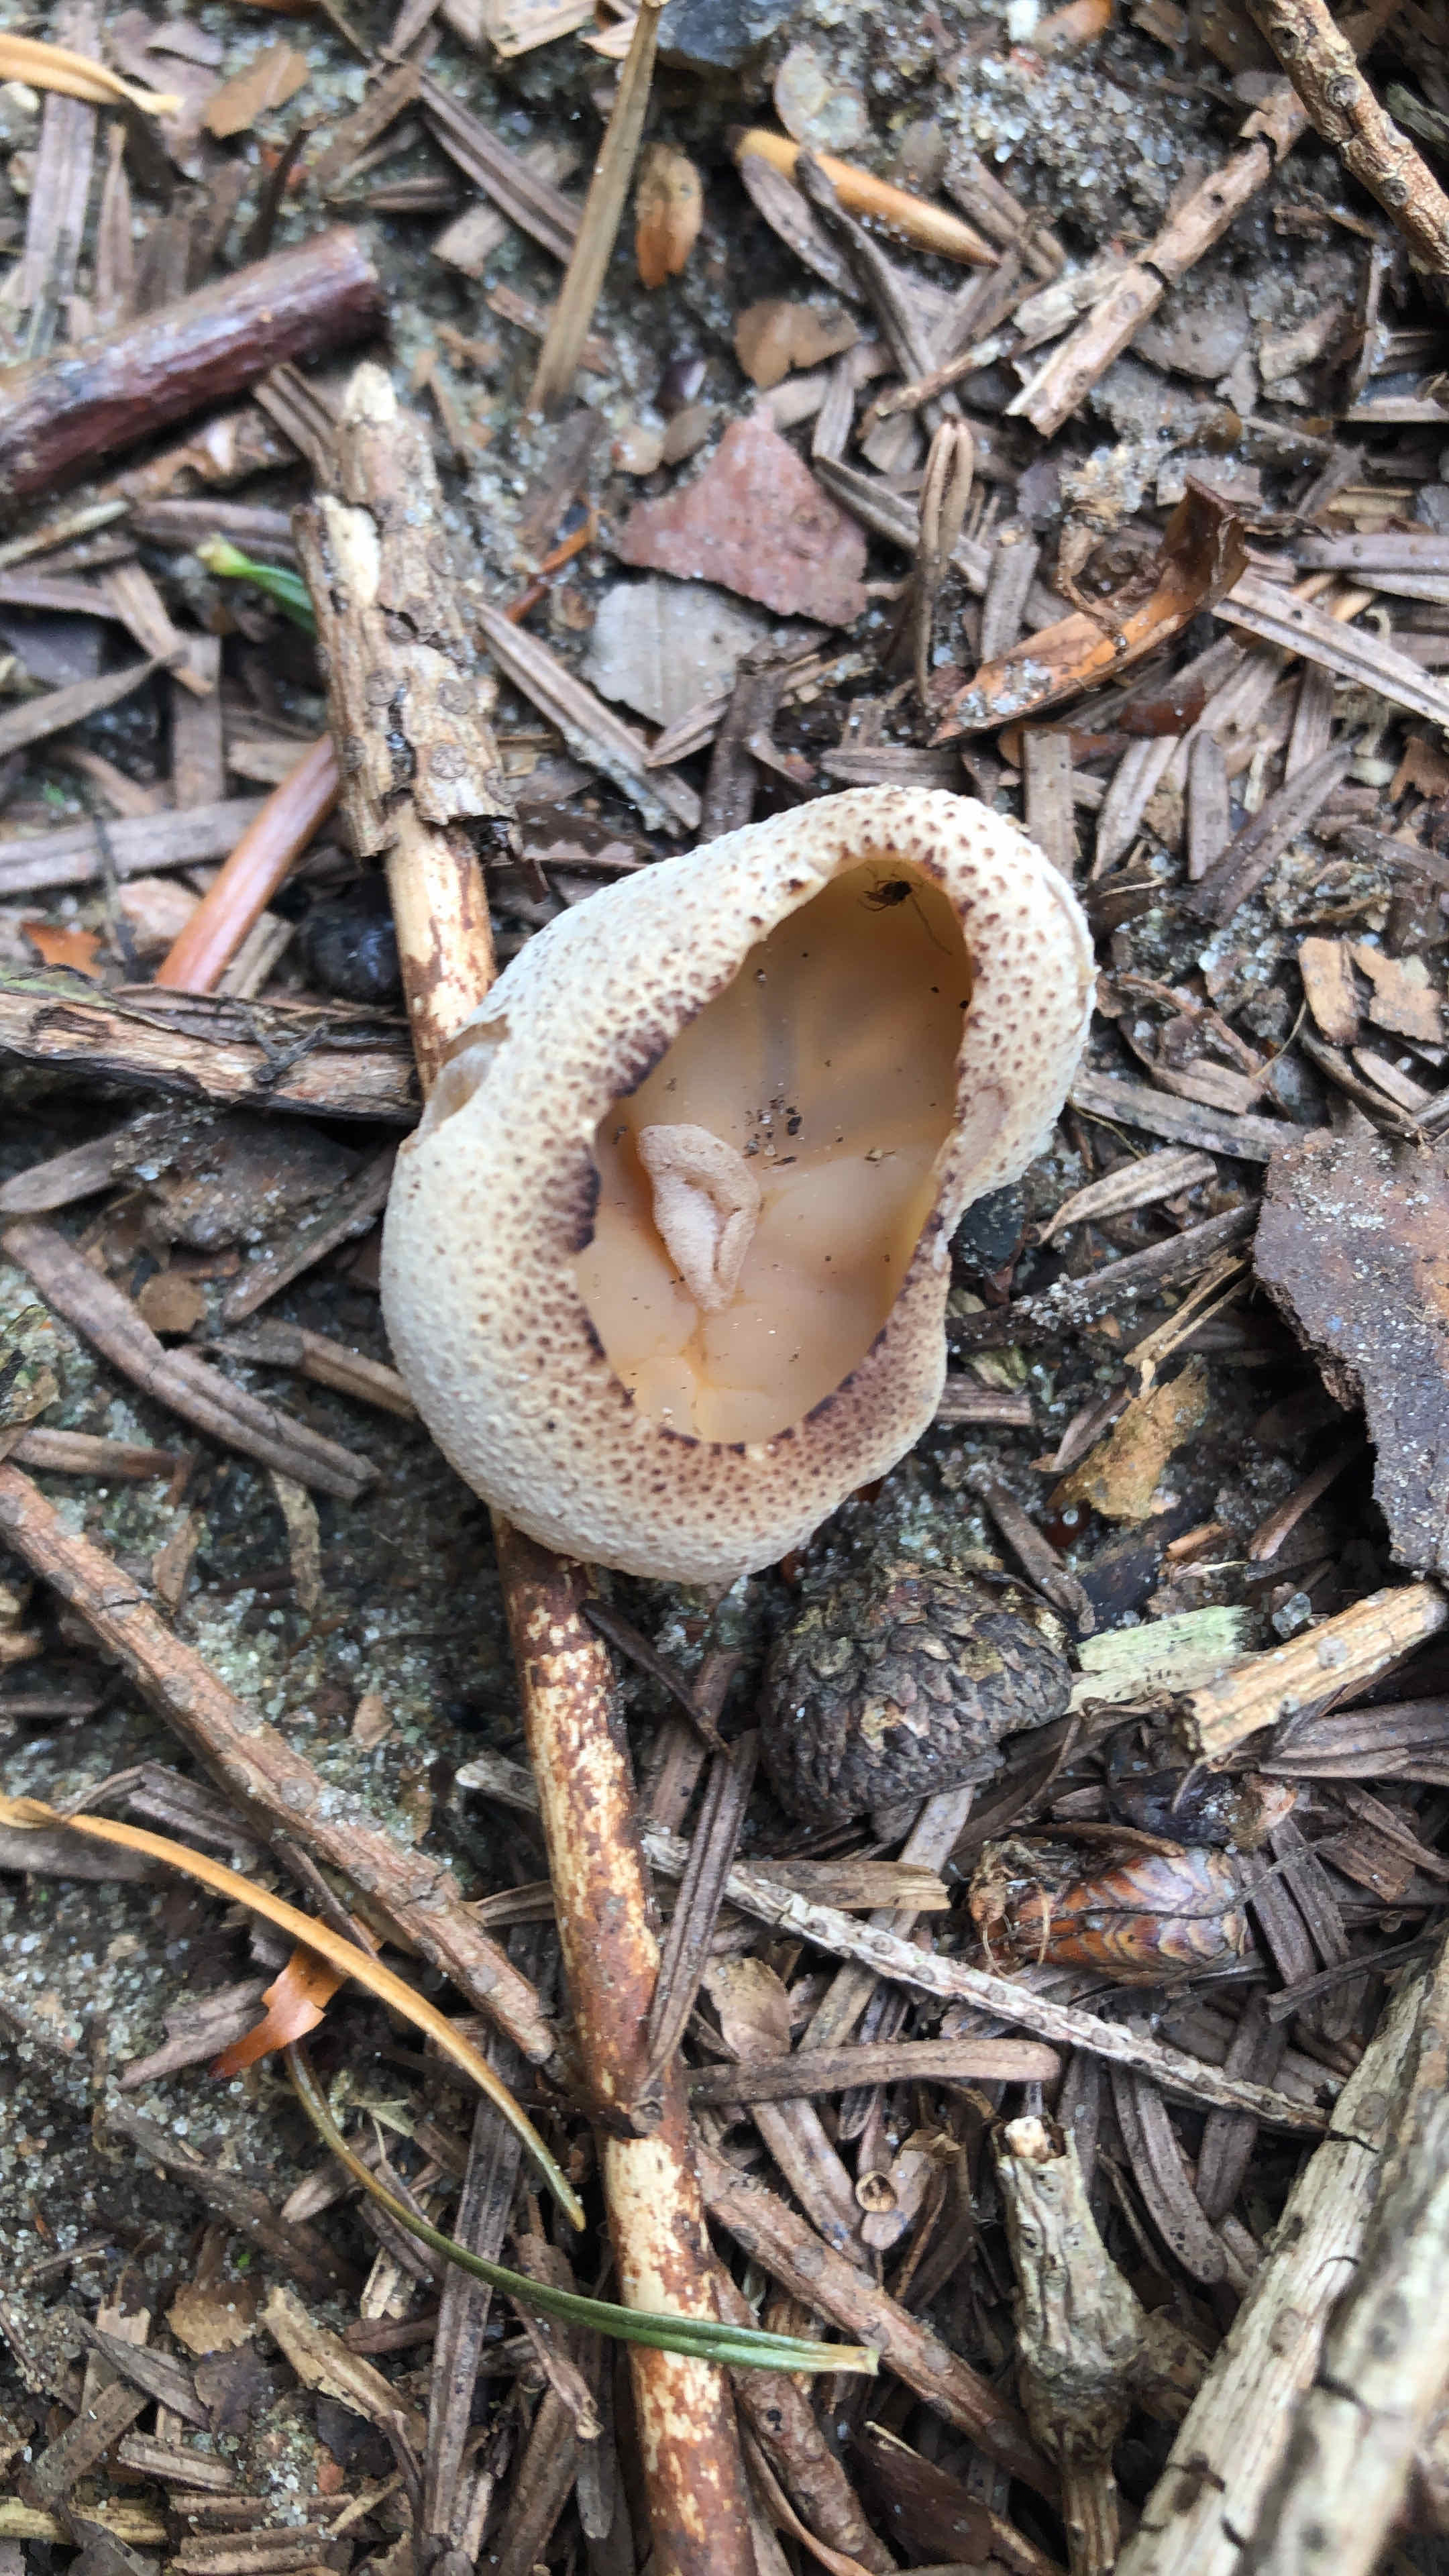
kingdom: Fungi
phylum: Ascomycota
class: Pezizomycetes
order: Pezizales
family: Pezizaceae
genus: Peziza
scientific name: Peziza
